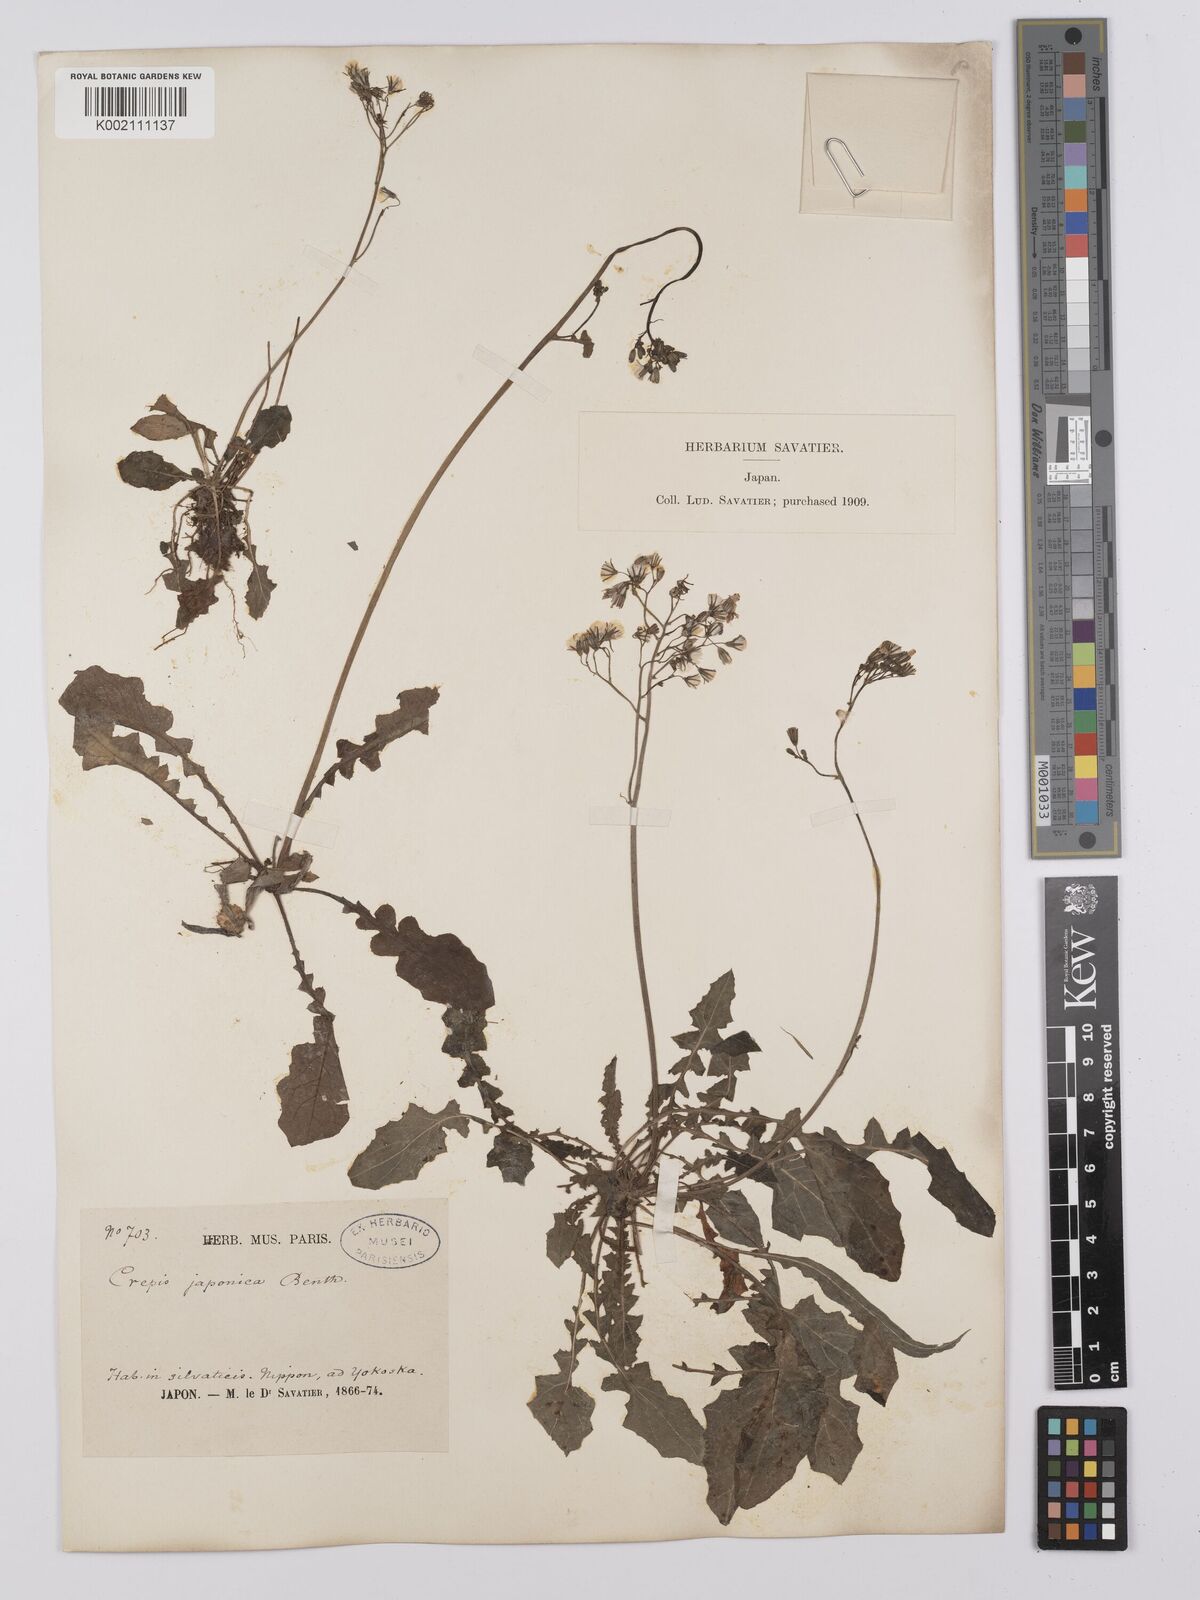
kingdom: Plantae
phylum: Tracheophyta
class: Magnoliopsida
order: Asterales
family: Asteraceae
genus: Youngia
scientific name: Youngia japonica
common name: Oriental false hawksbeard
